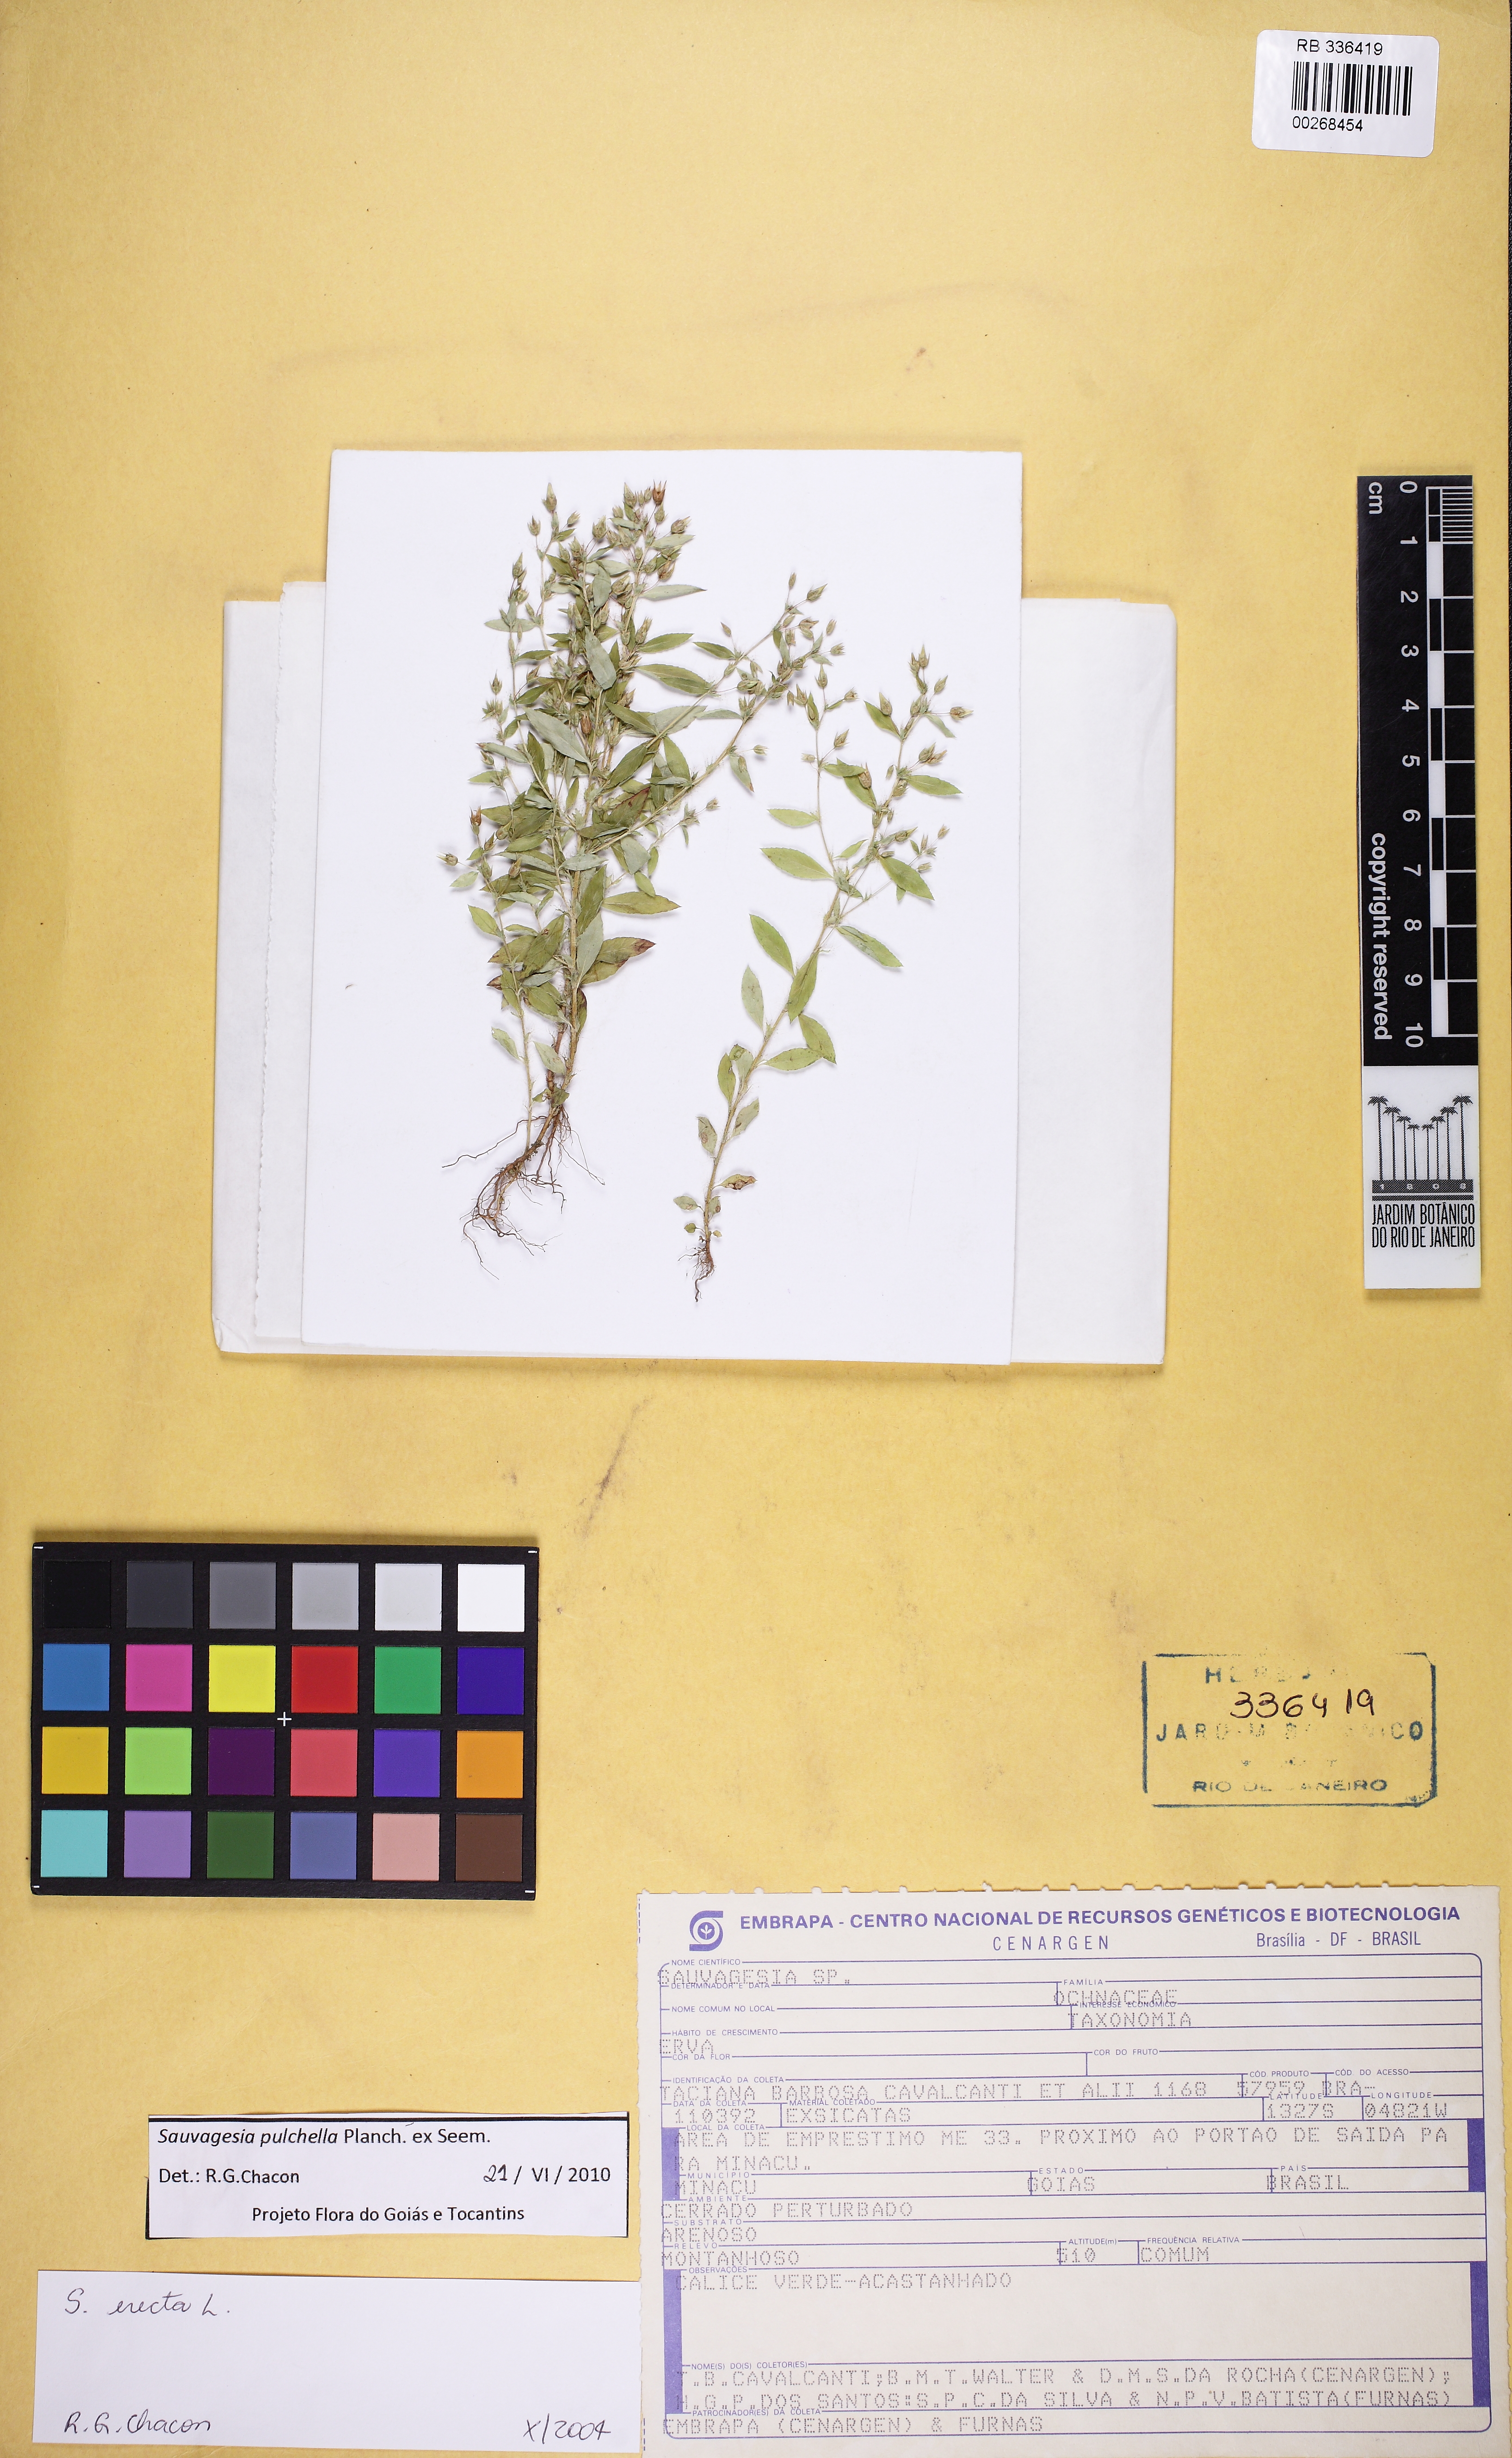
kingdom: Plantae
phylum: Tracheophyta
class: Magnoliopsida
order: Malpighiales
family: Ochnaceae
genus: Sauvagesia
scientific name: Sauvagesia pulchella
